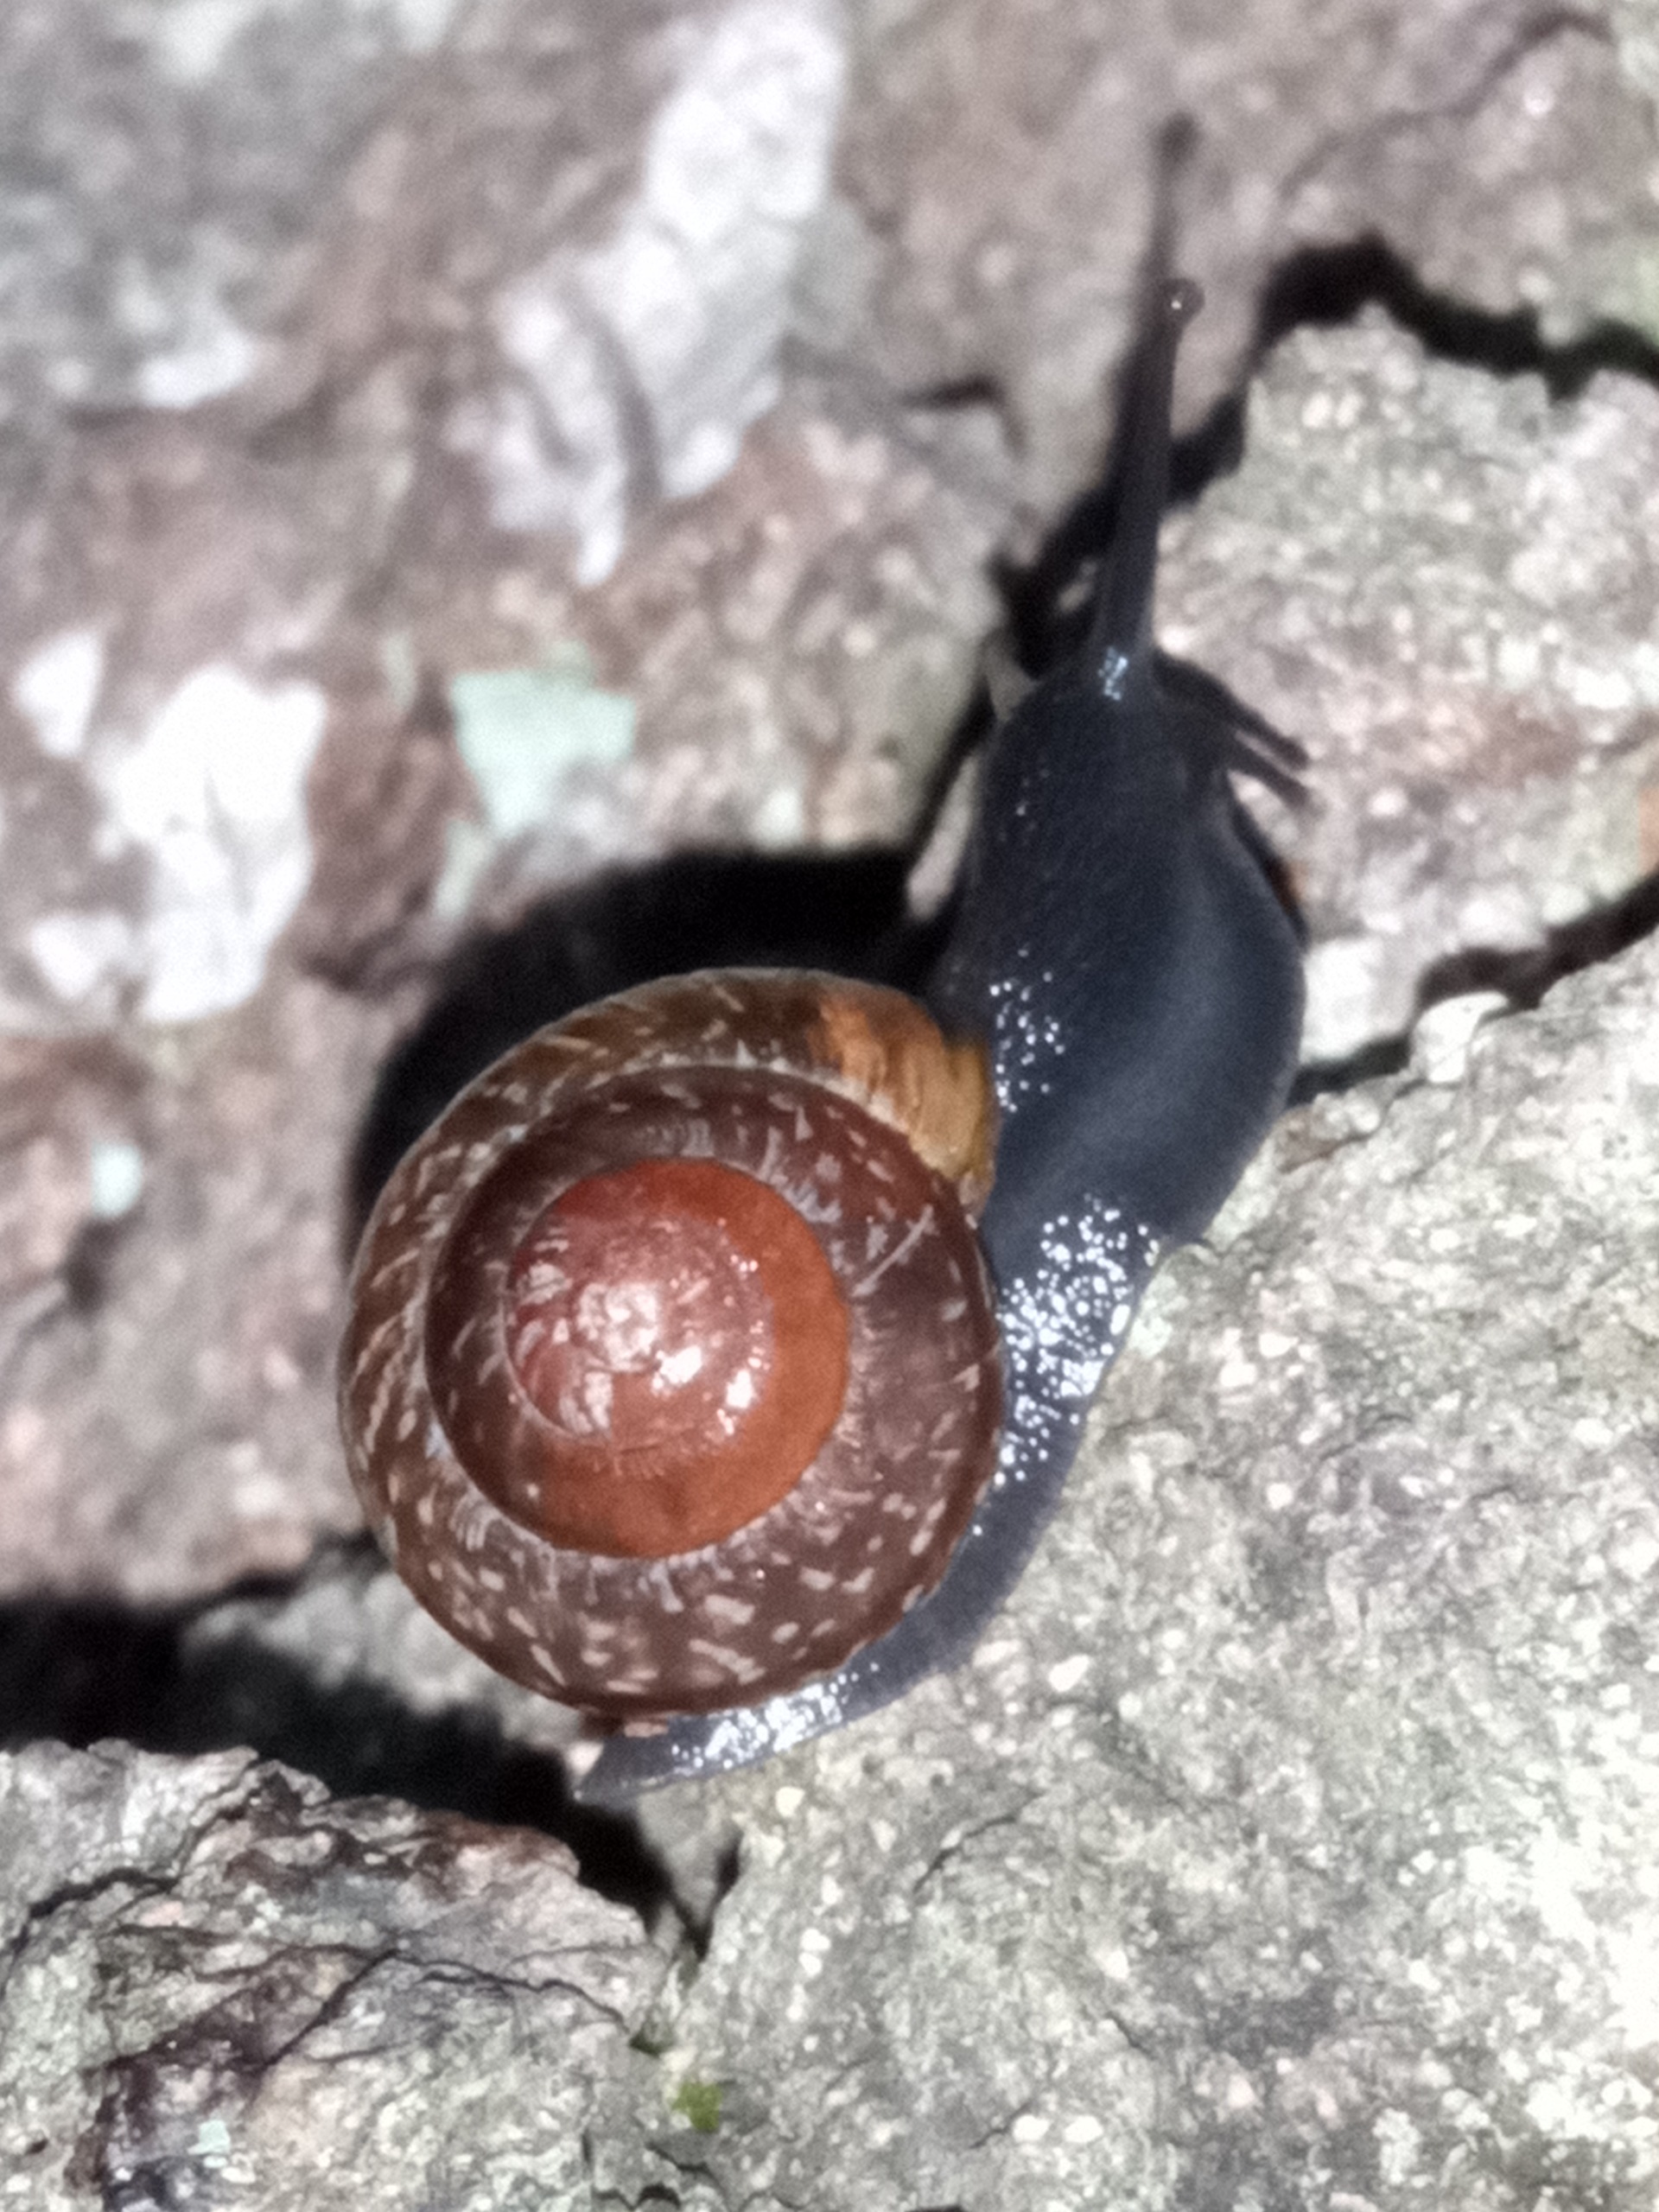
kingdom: Animalia
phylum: Mollusca
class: Gastropoda
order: Stylommatophora
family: Helicidae
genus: Arianta
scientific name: Arianta arbustorum
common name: Kratsnegl
